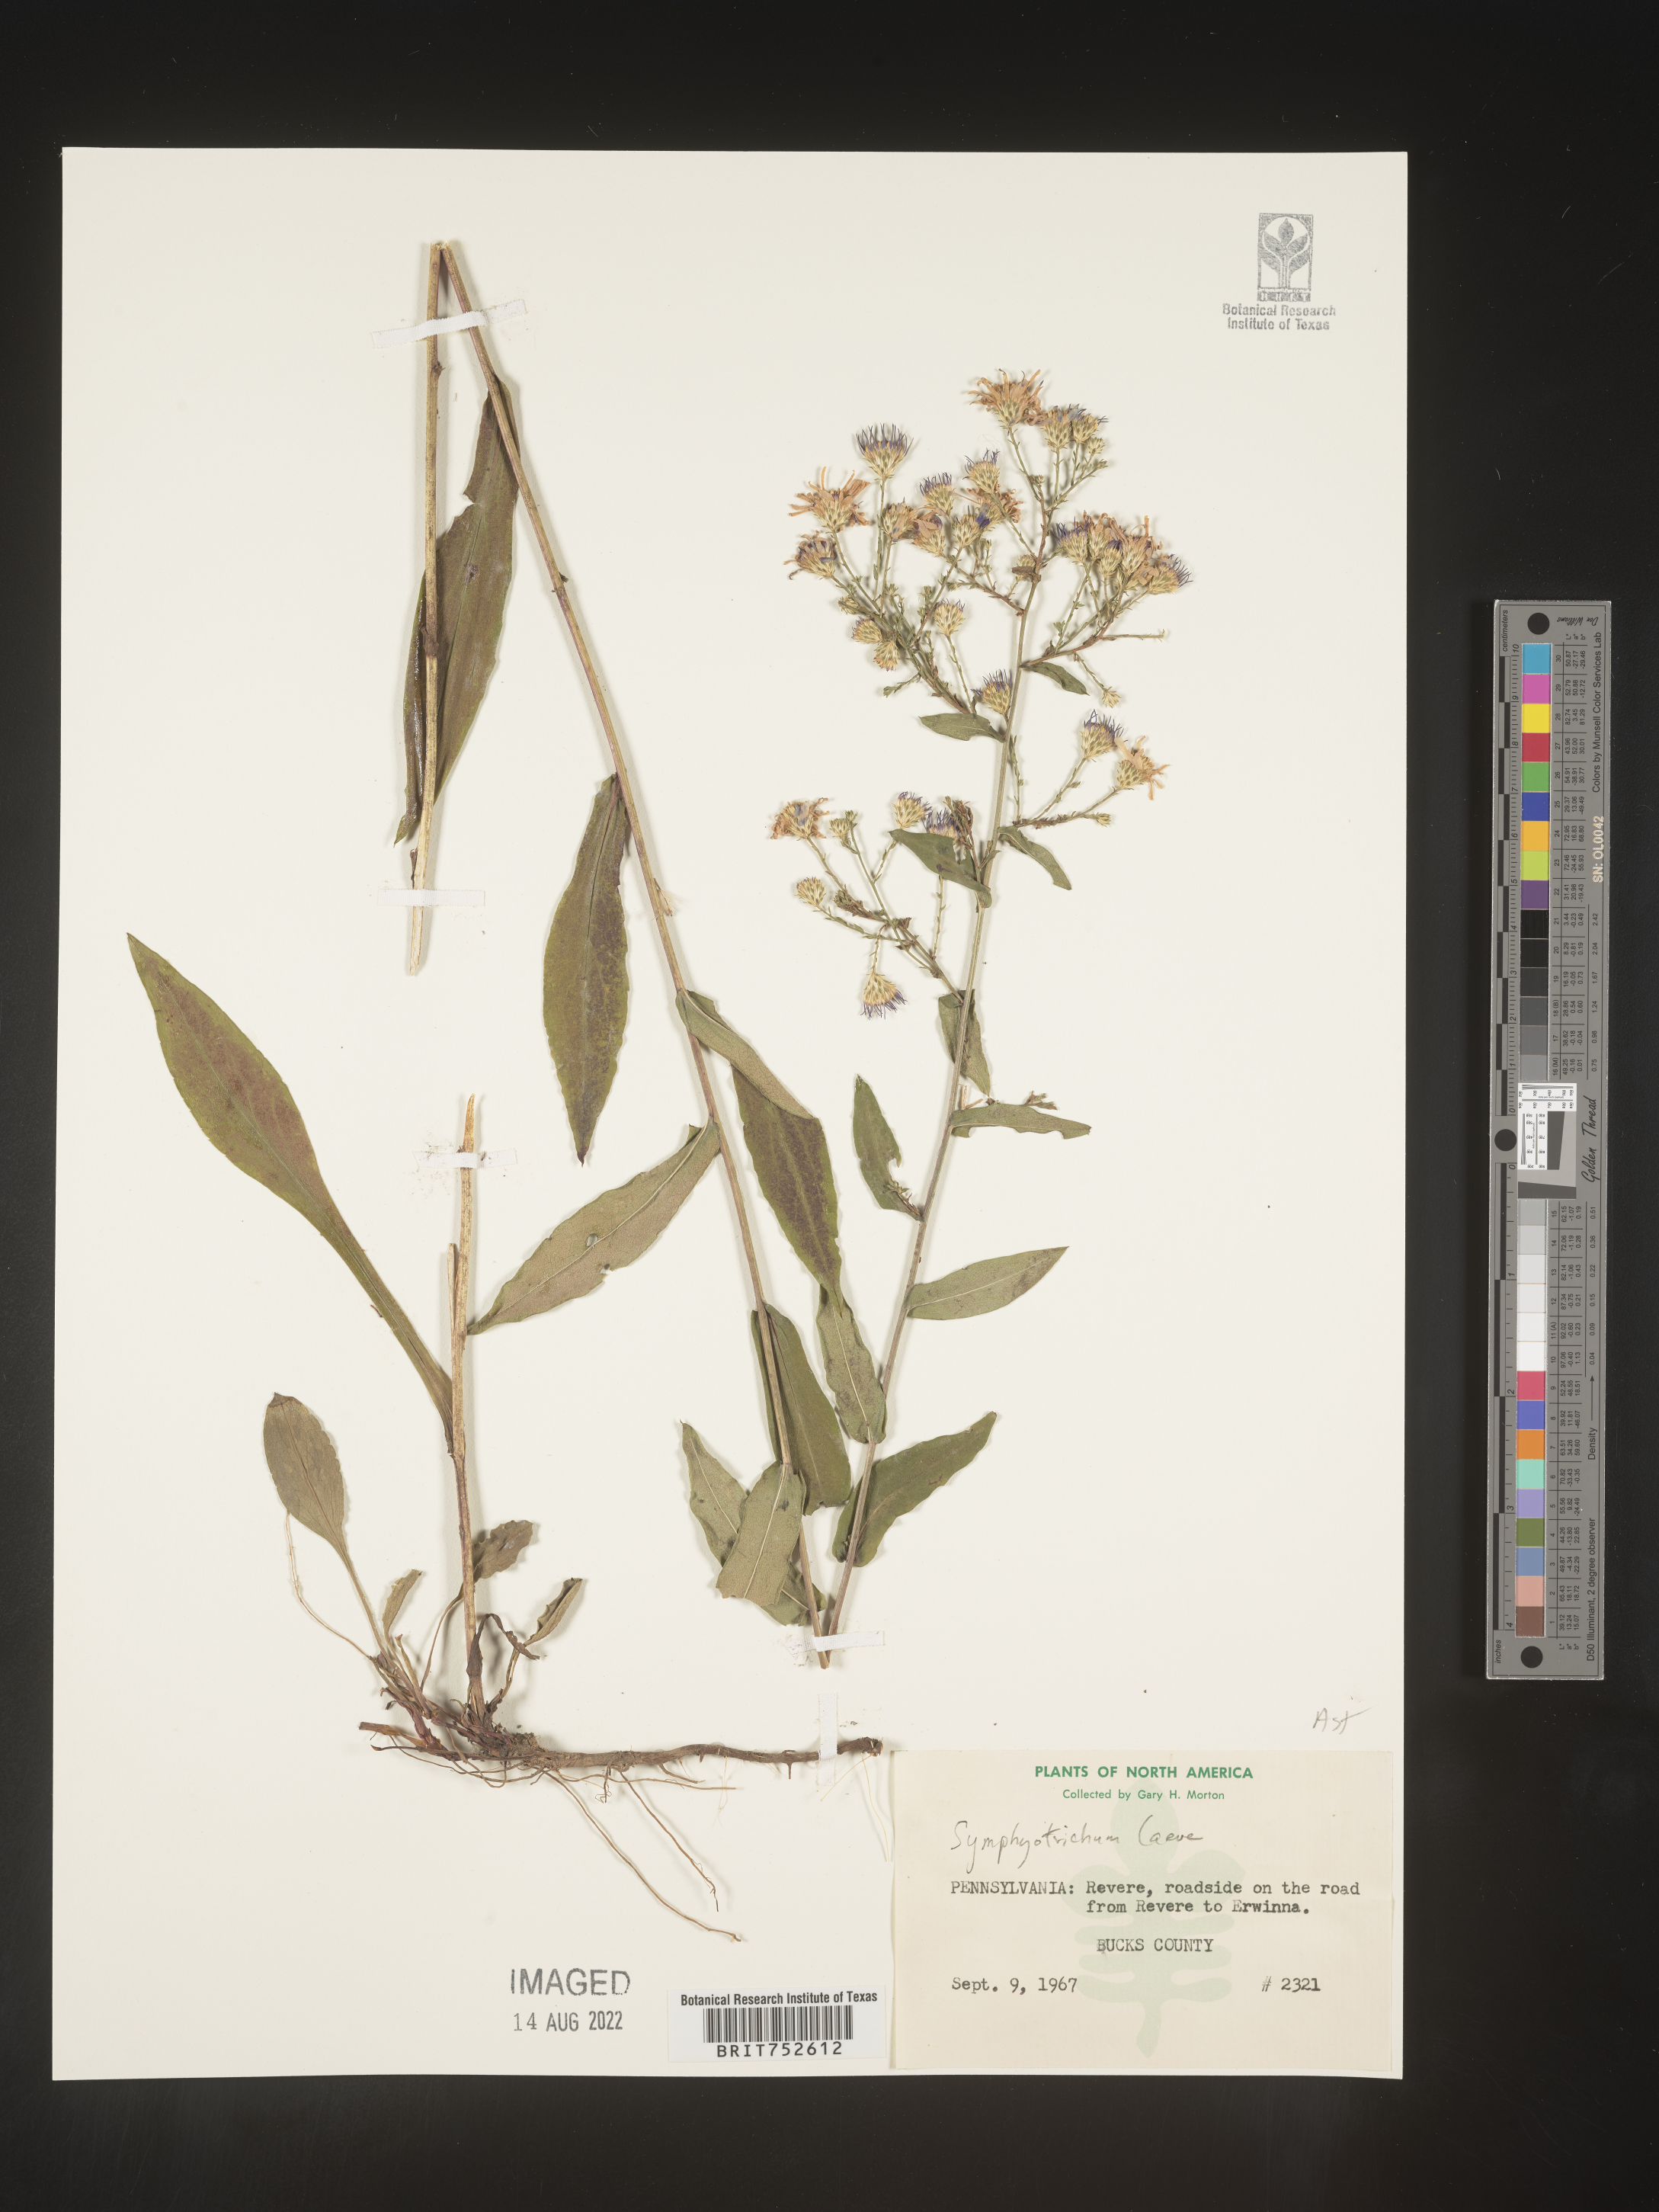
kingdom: Plantae
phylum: Tracheophyta
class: Magnoliopsida
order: Asterales
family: Asteraceae
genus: Symphyotrichum
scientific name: Symphyotrichum laeve
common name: Glaucous aster
